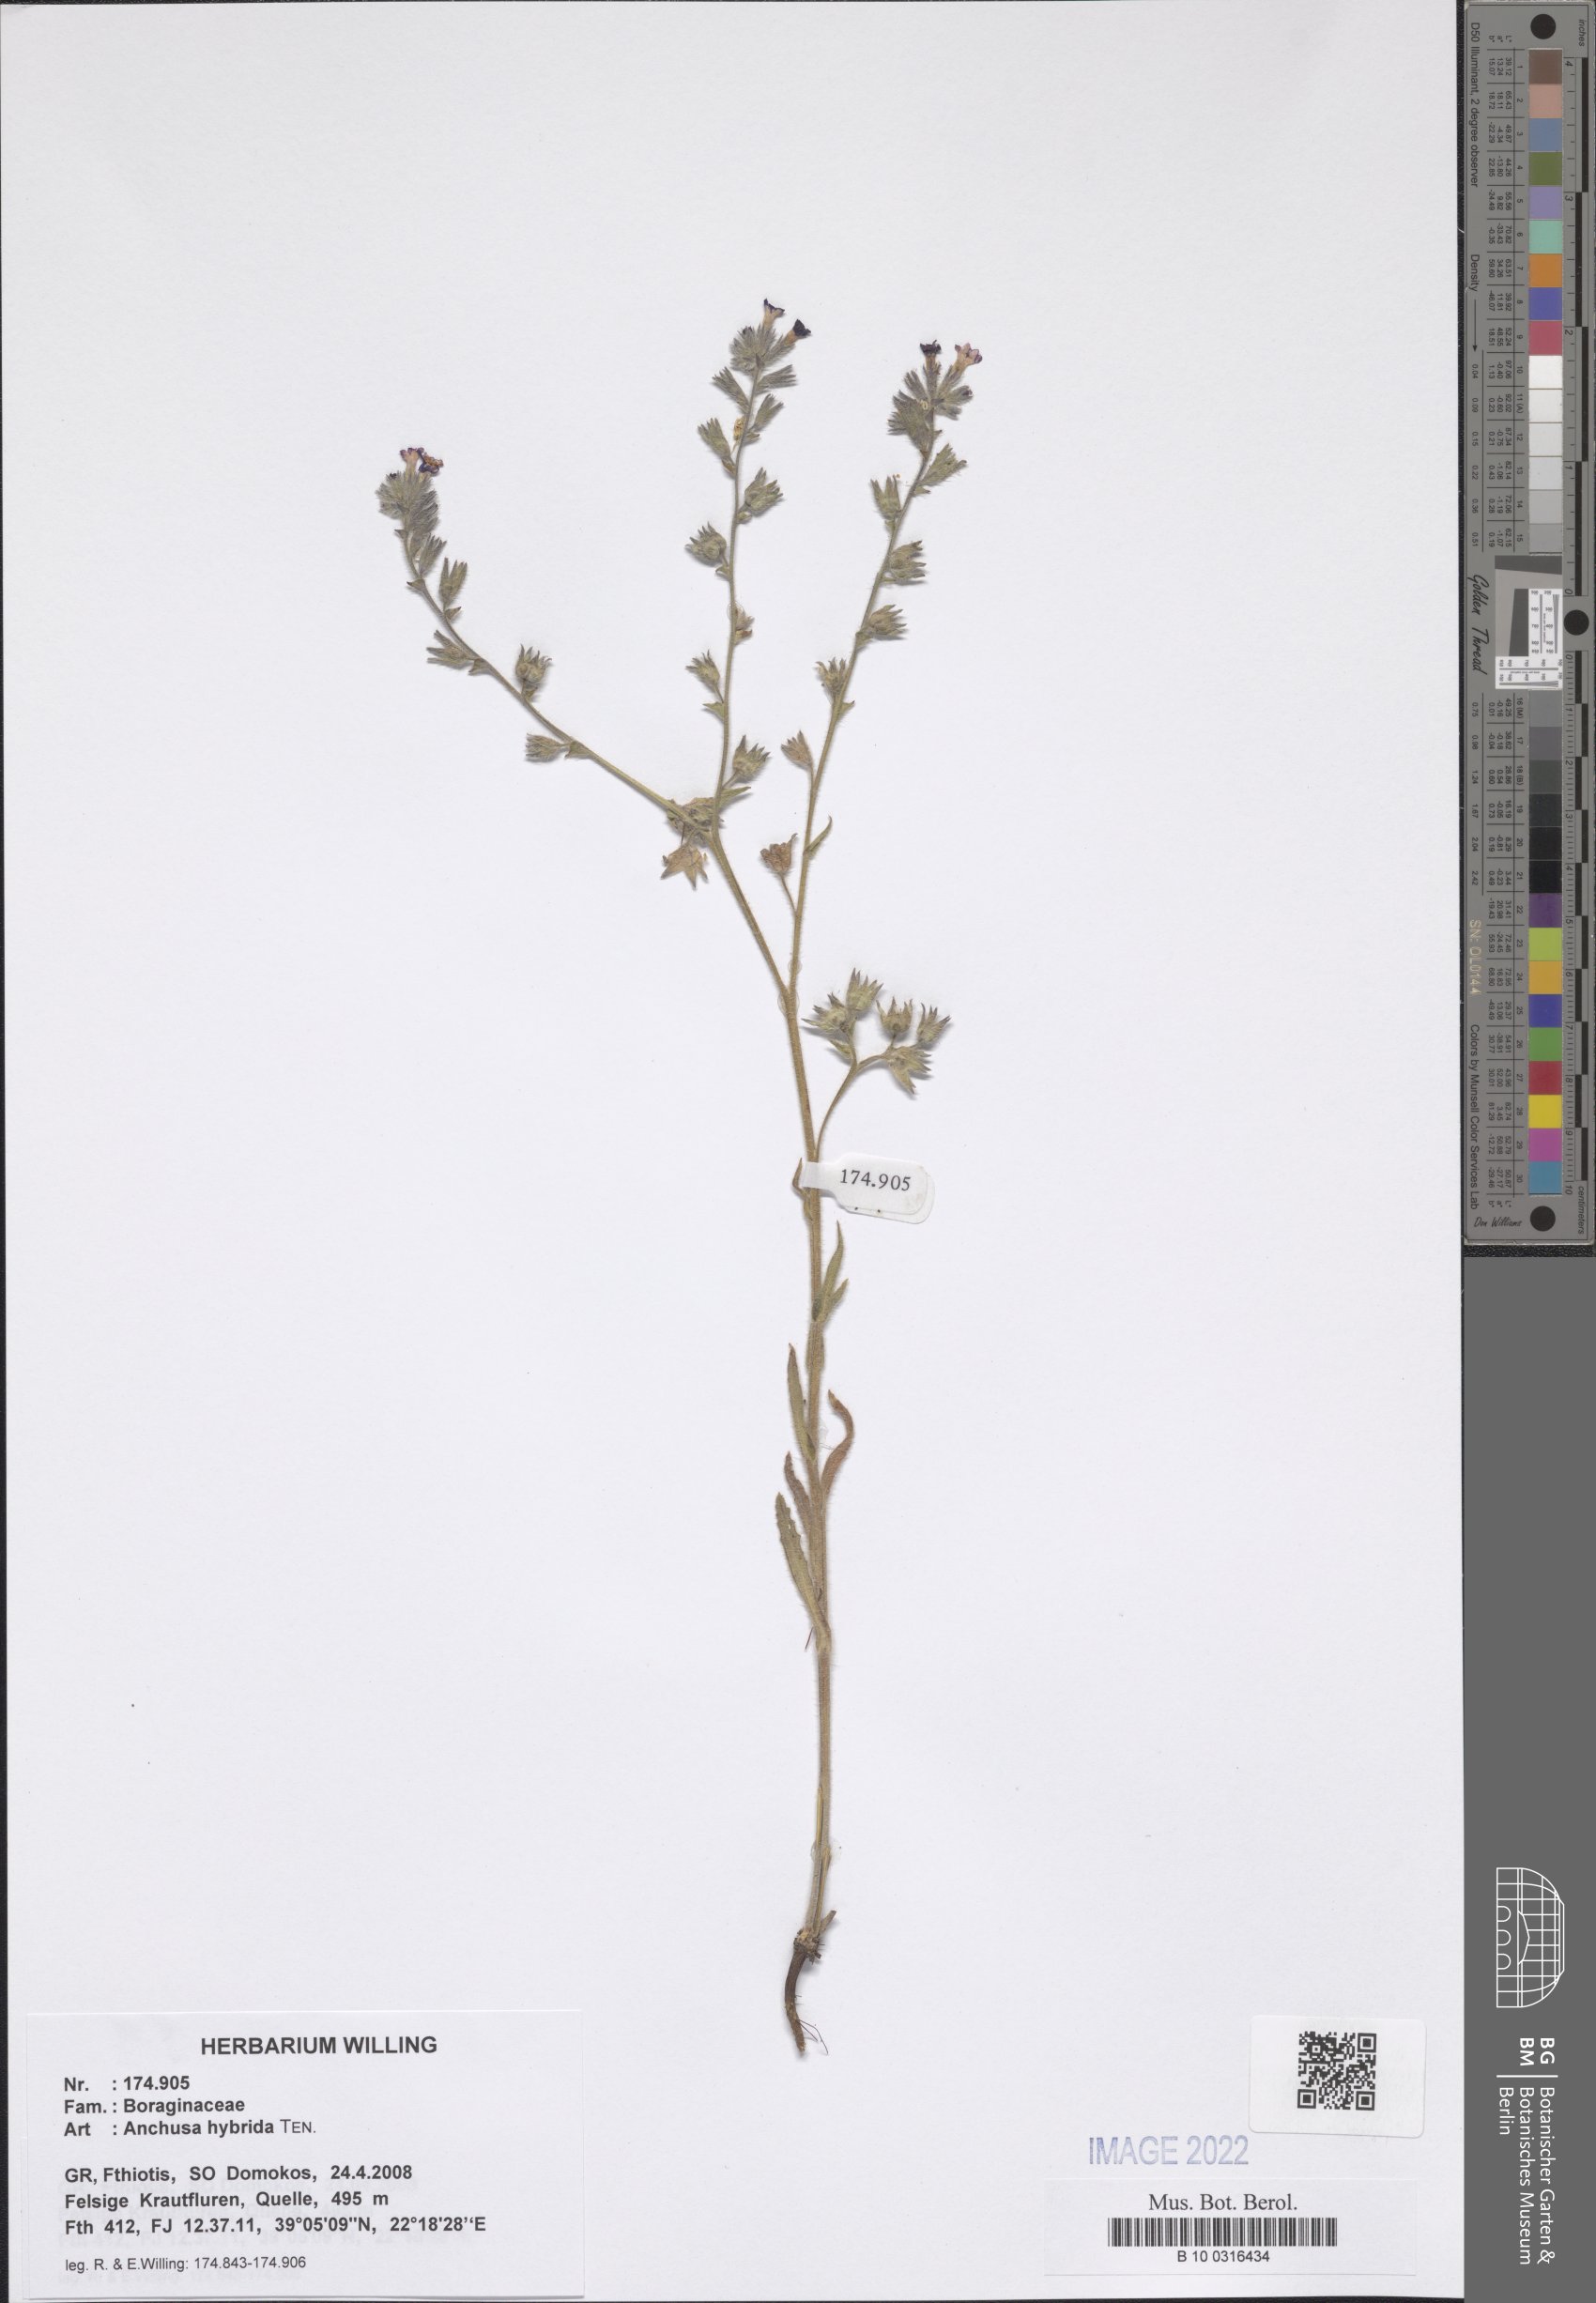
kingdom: Plantae
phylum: Tracheophyta
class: Magnoliopsida
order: Boraginales
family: Boraginaceae
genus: Anchusa
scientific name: Anchusa hybrida
